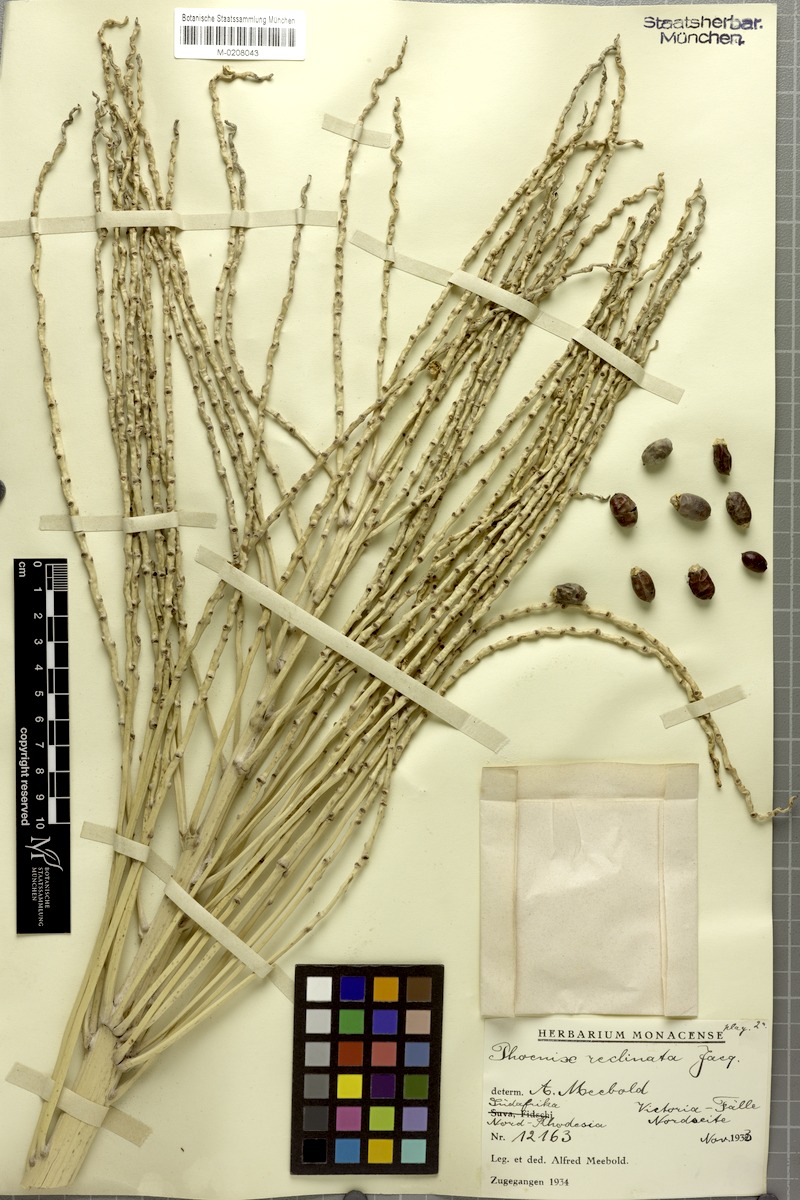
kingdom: Plantae
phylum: Tracheophyta
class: Liliopsida
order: Arecales
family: Arecaceae
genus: Phoenix
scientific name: Phoenix reclinata
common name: Senegal date palm
